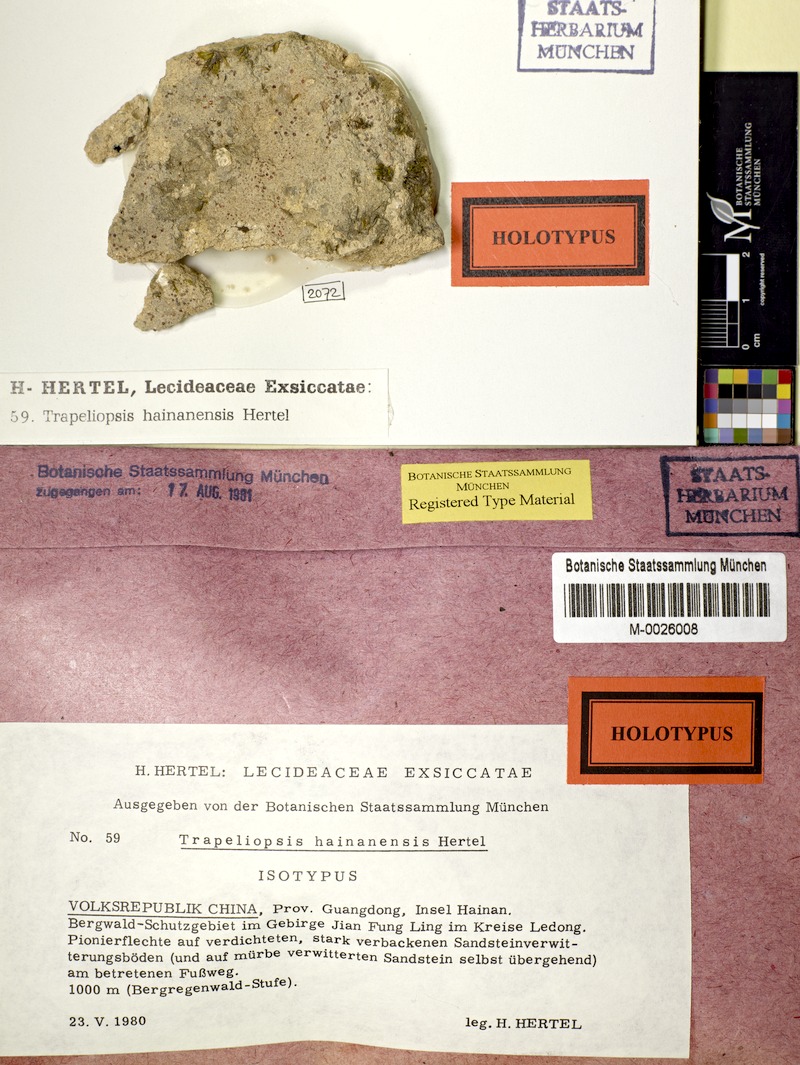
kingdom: Fungi
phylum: Ascomycota
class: Lecanoromycetes
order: Baeomycetales
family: Trapeliaceae
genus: Trapeliopsis
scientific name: Trapeliopsis
